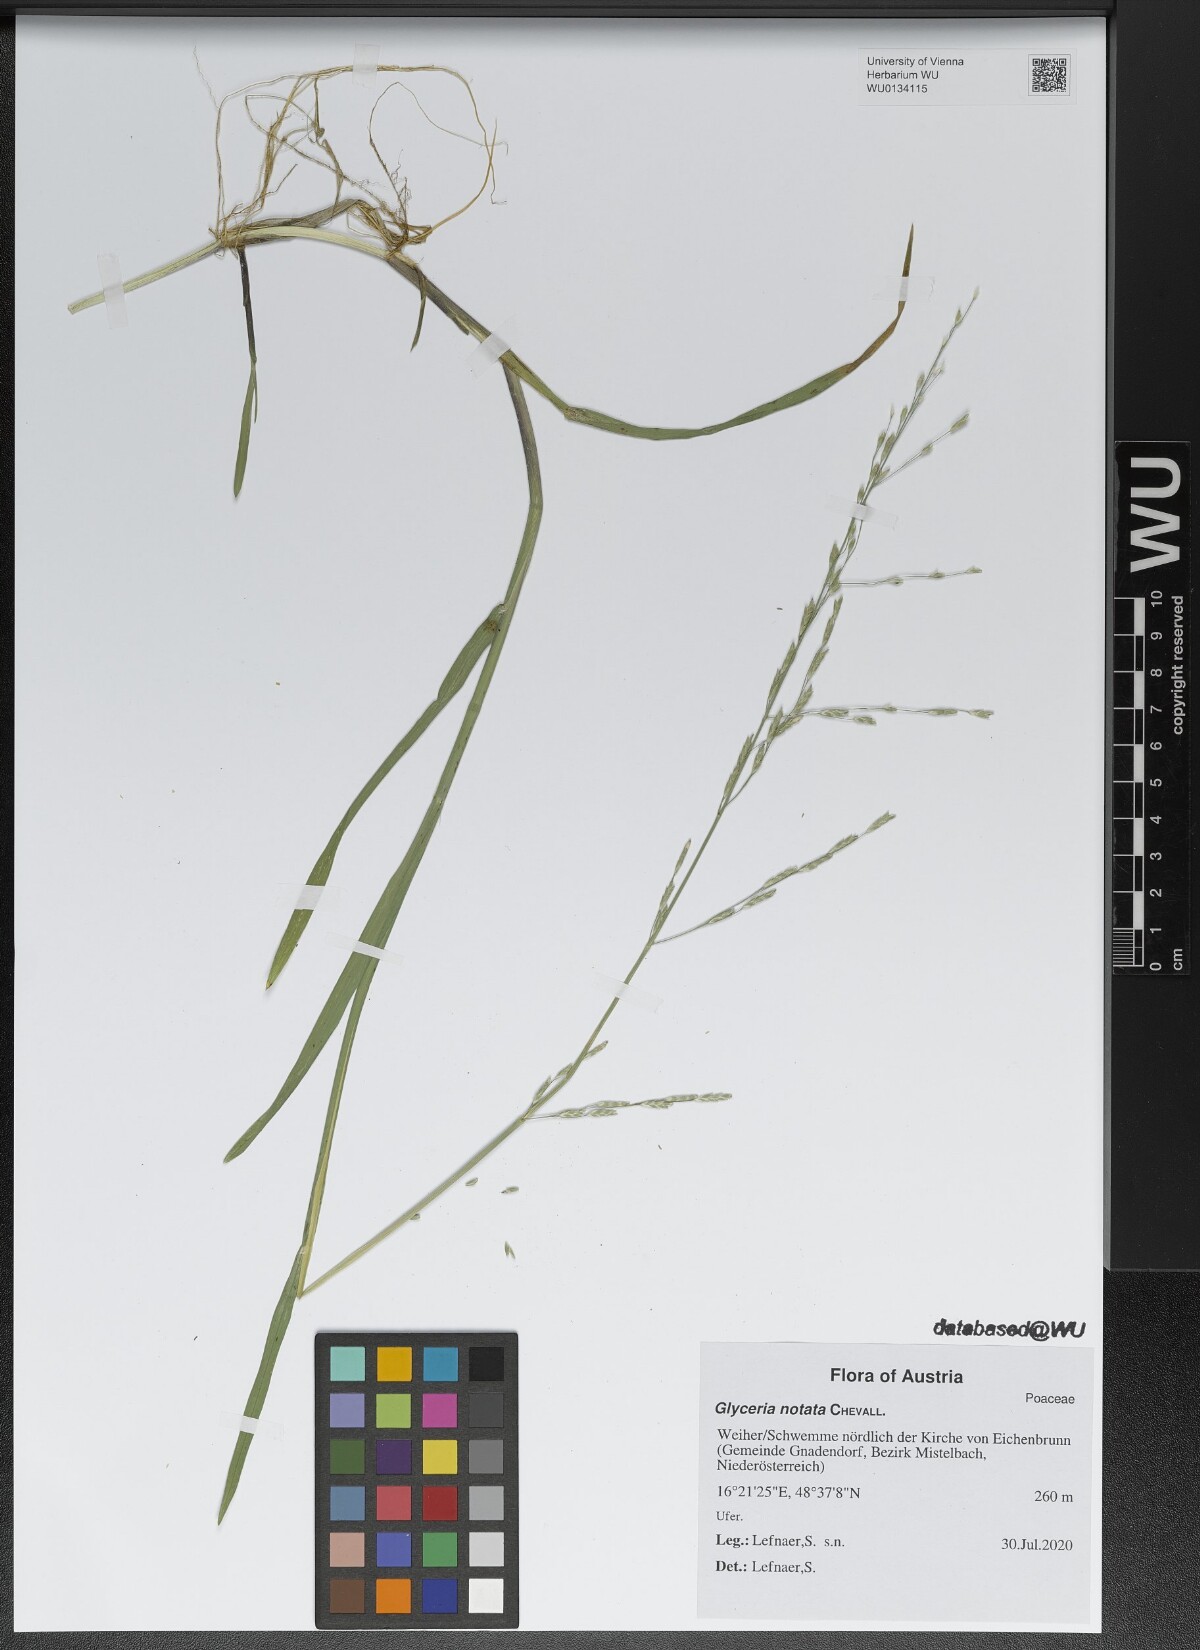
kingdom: Plantae
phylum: Tracheophyta
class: Liliopsida
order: Poales
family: Poaceae
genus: Glyceria
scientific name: Glyceria notata
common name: Plicate sweet-grass
